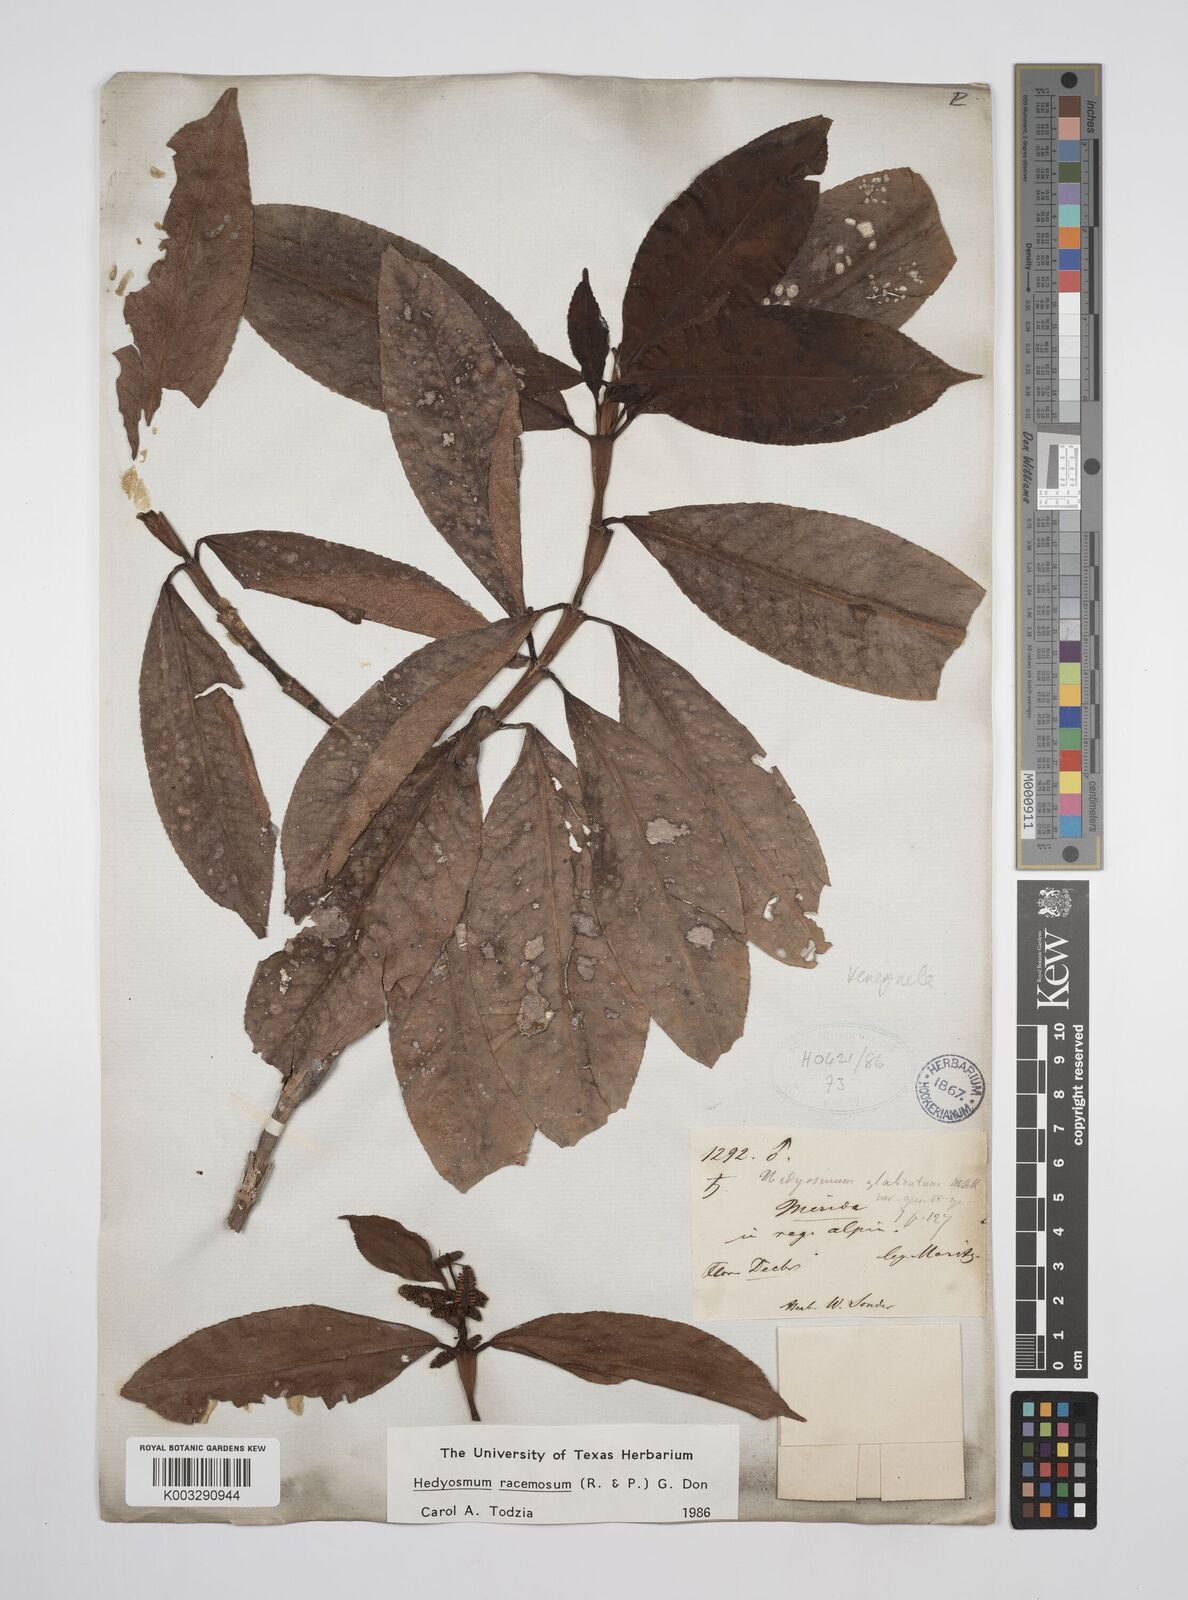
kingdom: Plantae
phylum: Tracheophyta
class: Magnoliopsida
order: Chloranthales
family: Chloranthaceae
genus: Hedyosmum
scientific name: Hedyosmum racemosum
